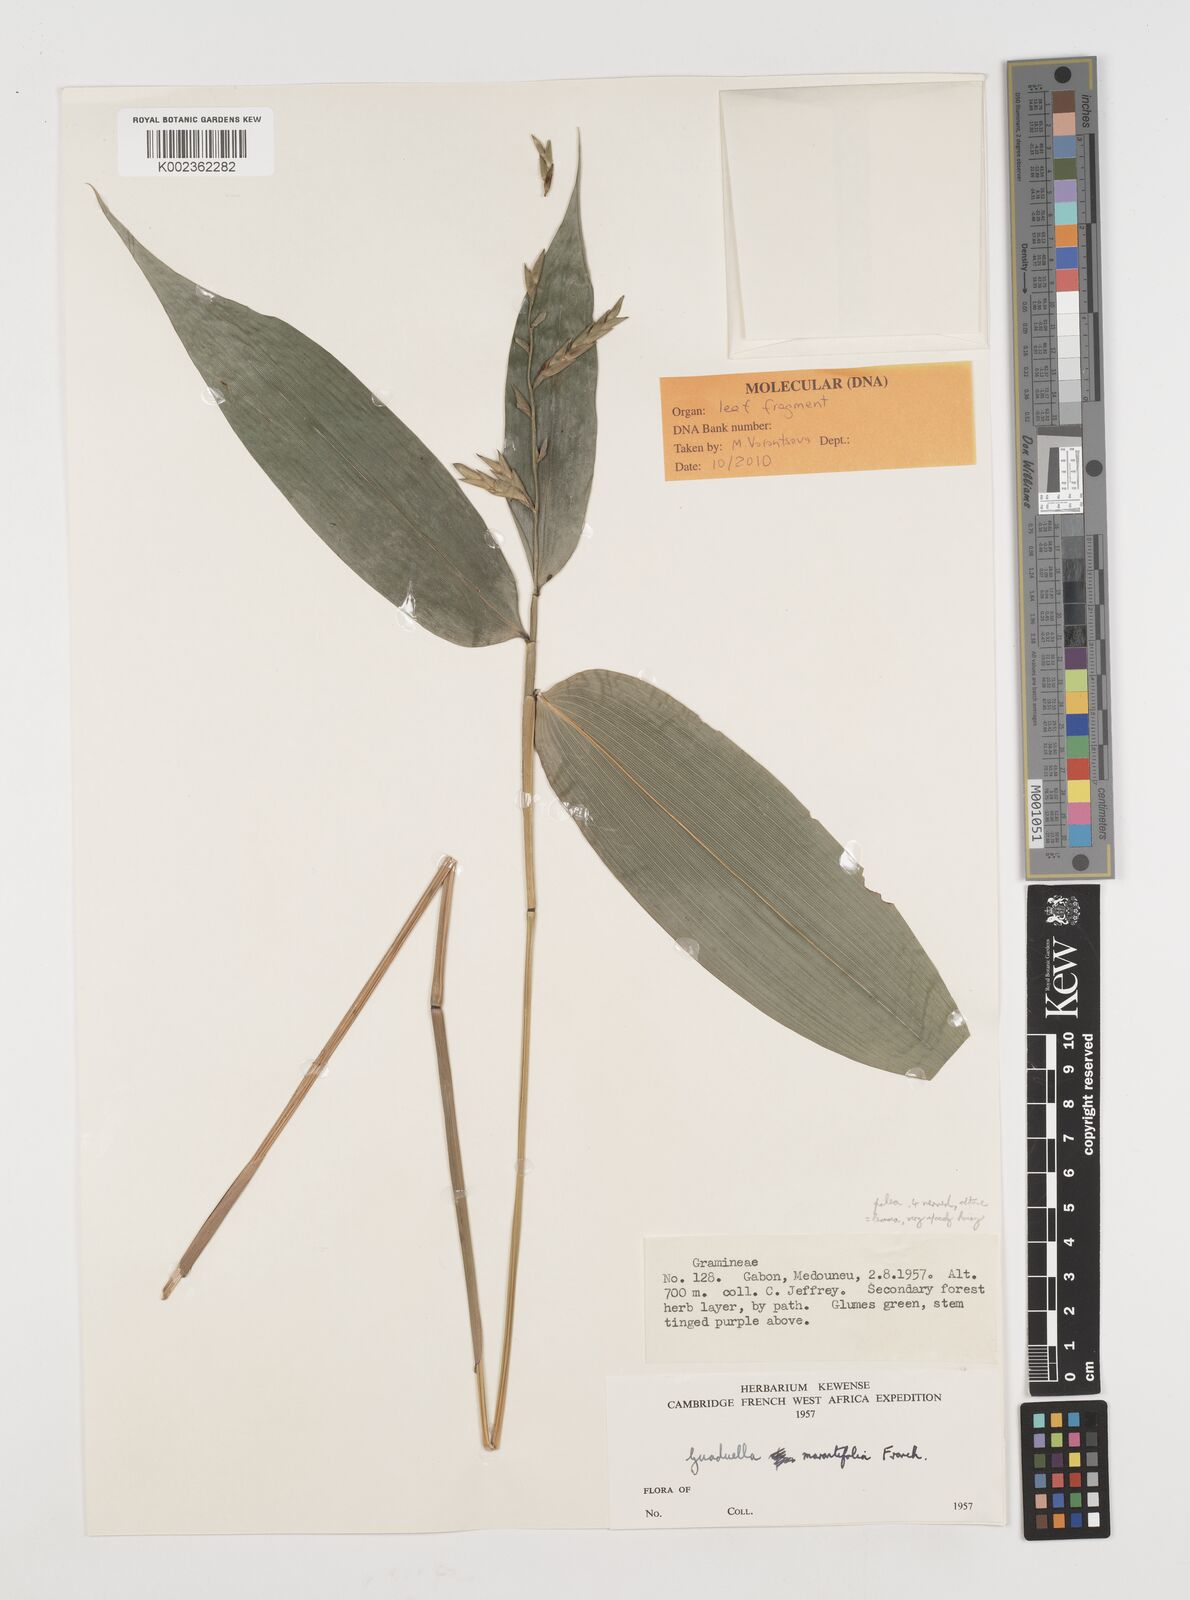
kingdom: Plantae
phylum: Tracheophyta
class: Liliopsida
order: Poales
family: Poaceae
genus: Guaduella
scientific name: Guaduella marantifolia
